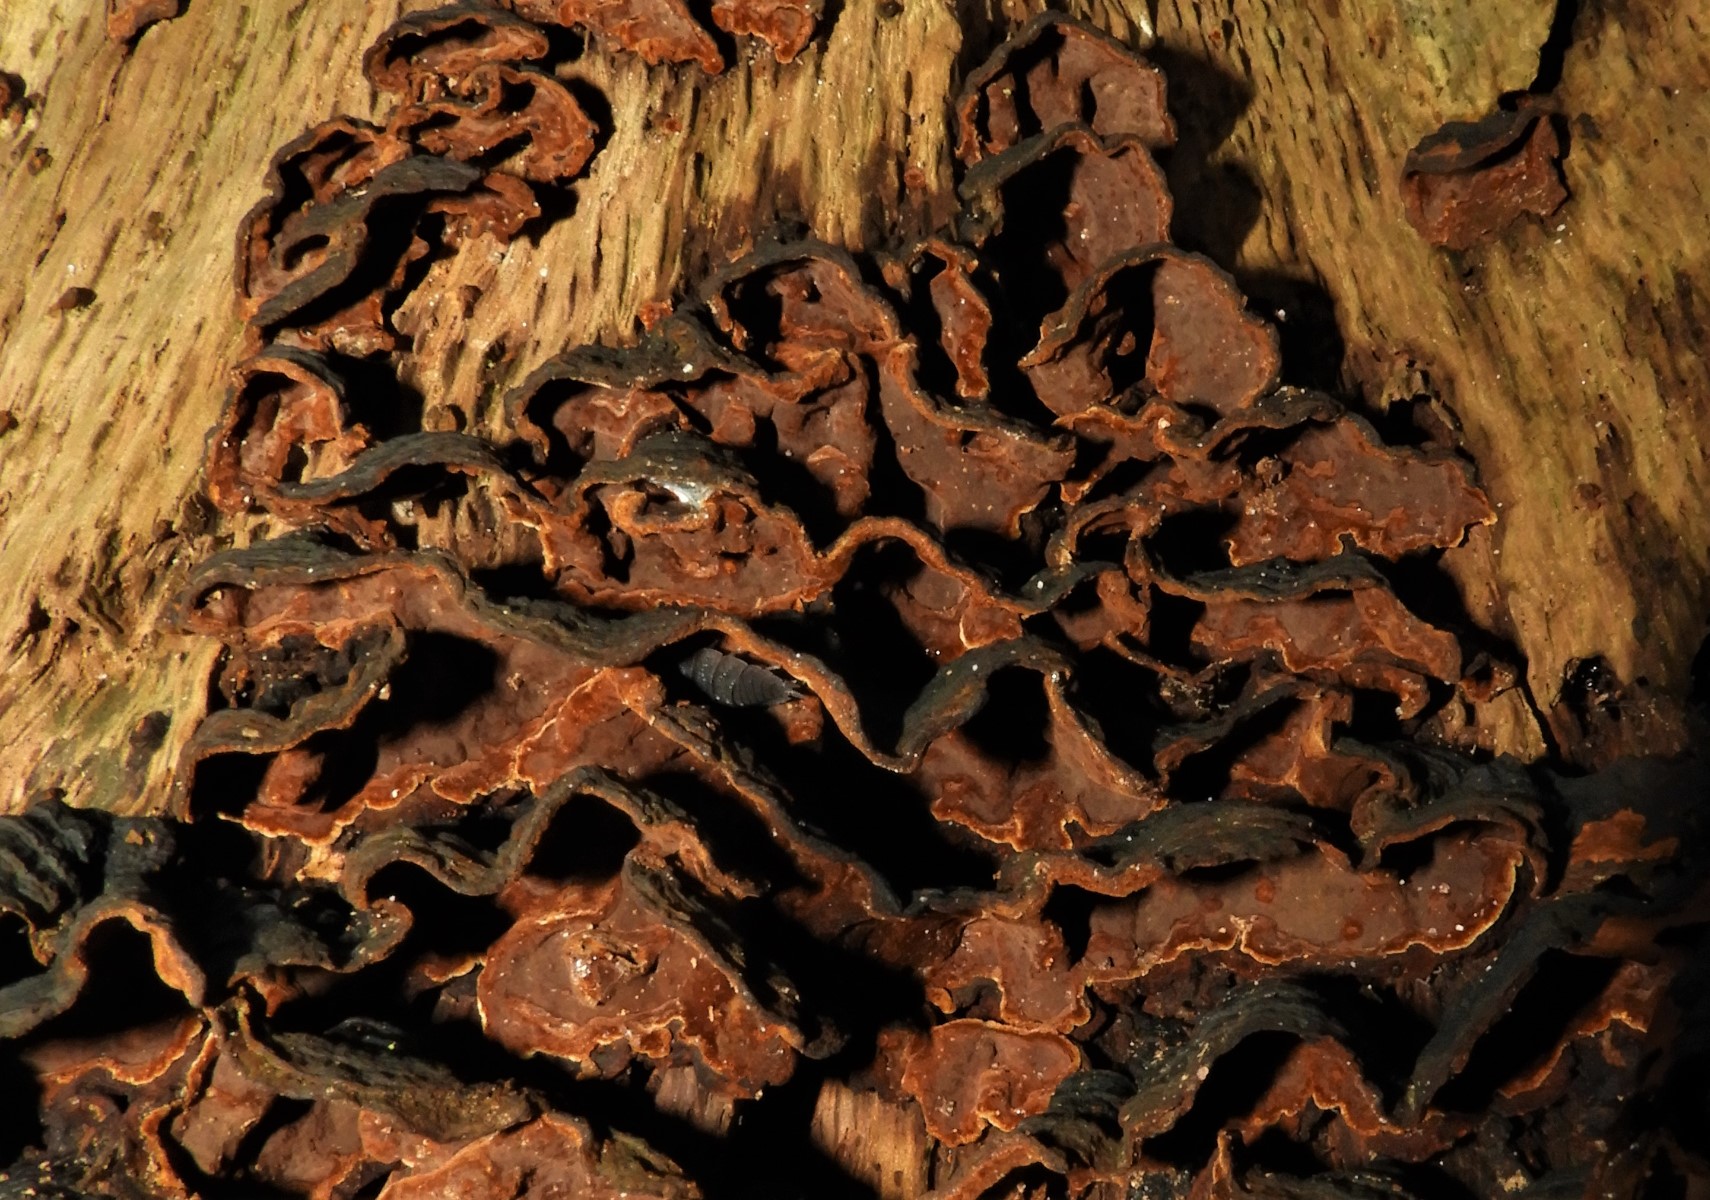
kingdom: Fungi
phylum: Basidiomycota
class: Agaricomycetes
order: Hymenochaetales
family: Hymenochaetaceae
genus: Hymenochaete
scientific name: Hymenochaete rubiginosa
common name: stiv ruslædersvamp
